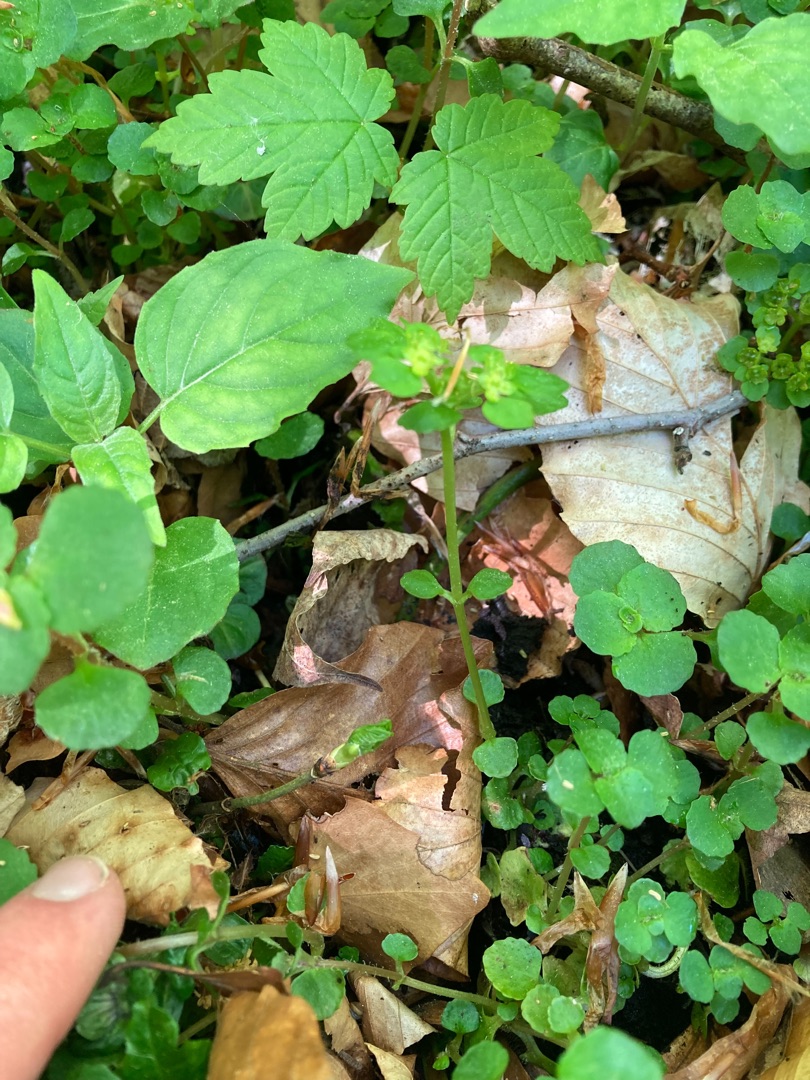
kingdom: Plantae
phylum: Tracheophyta
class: Magnoliopsida
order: Saxifragales
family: Saxifragaceae
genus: Chrysosplenium
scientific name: Chrysosplenium oppositifolium
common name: Småbladet milturt
